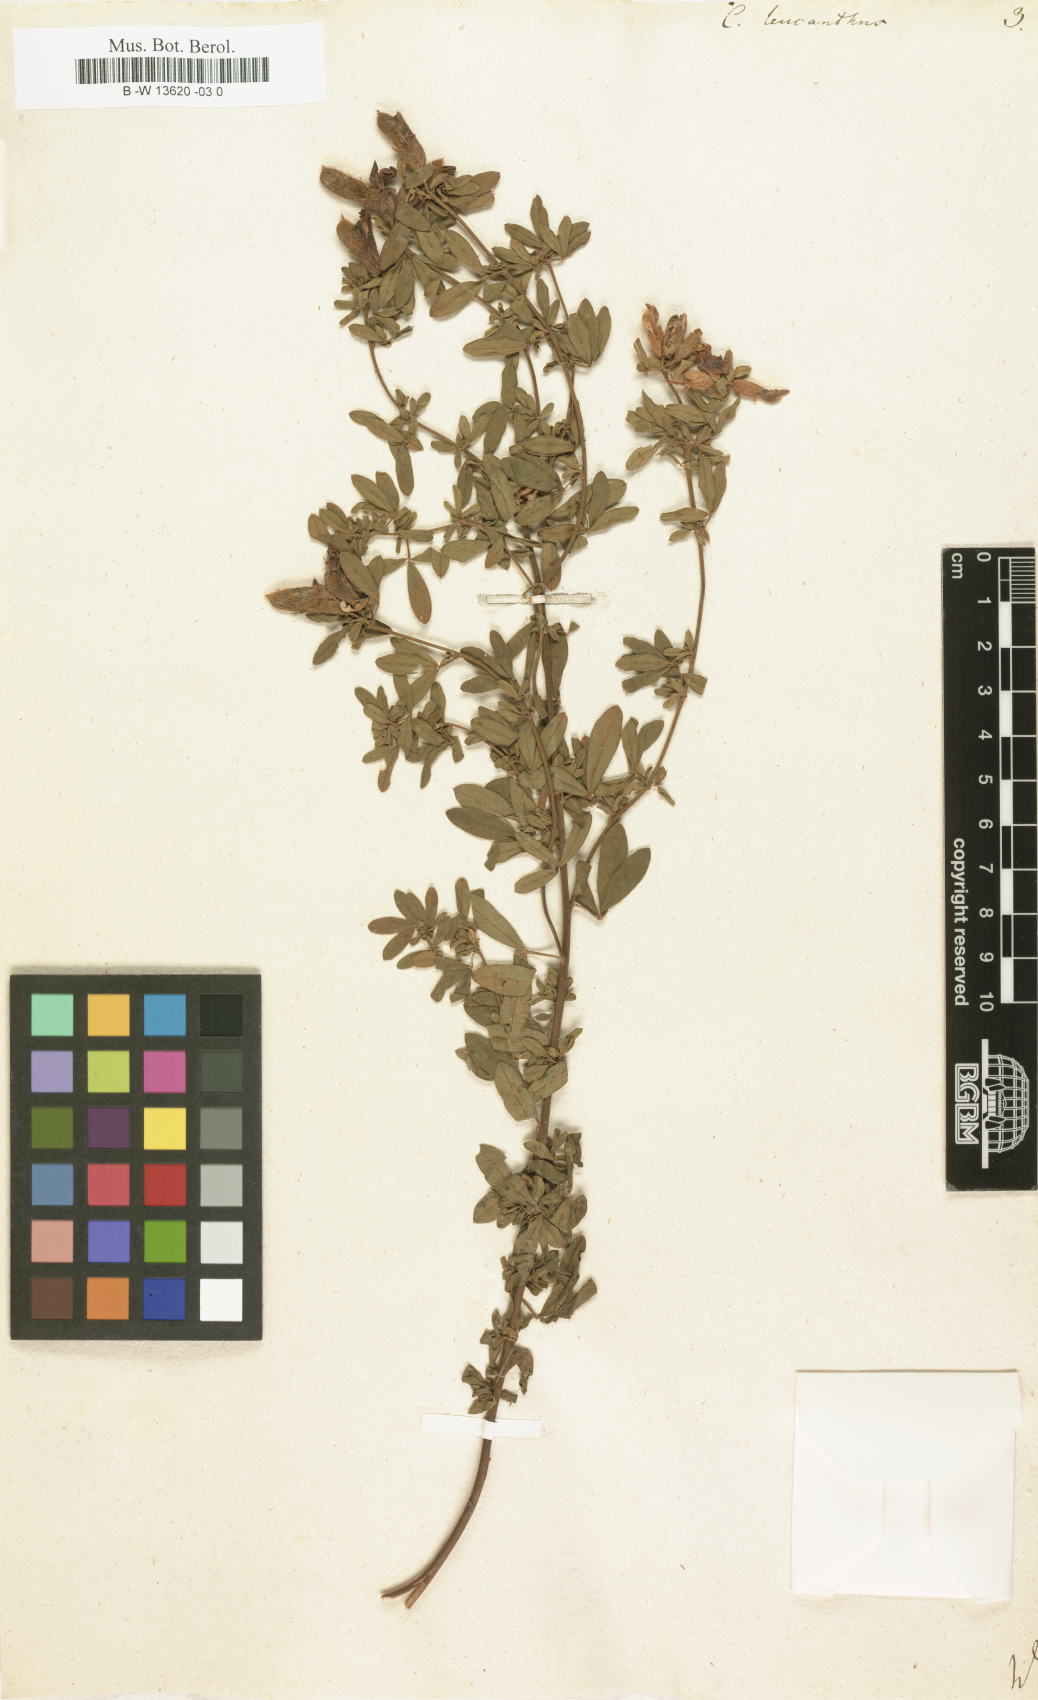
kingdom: Plantae
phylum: Tracheophyta
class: Magnoliopsida
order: Fabales
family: Fabaceae
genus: Chamaecytisus
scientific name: Chamaecytisus albus
